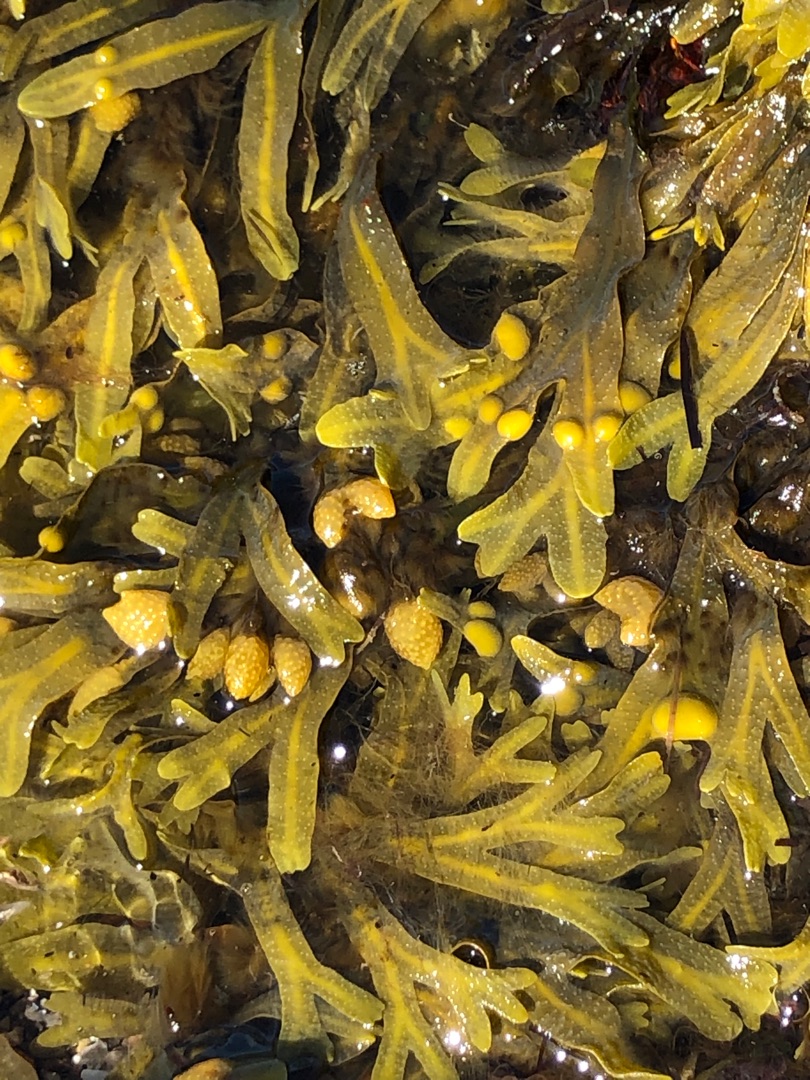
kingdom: Chromista
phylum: Ochrophyta
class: Phaeophyceae
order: Fucales
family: Fucaceae
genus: Fucus
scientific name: Fucus vesiculosus
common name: Blæretang
